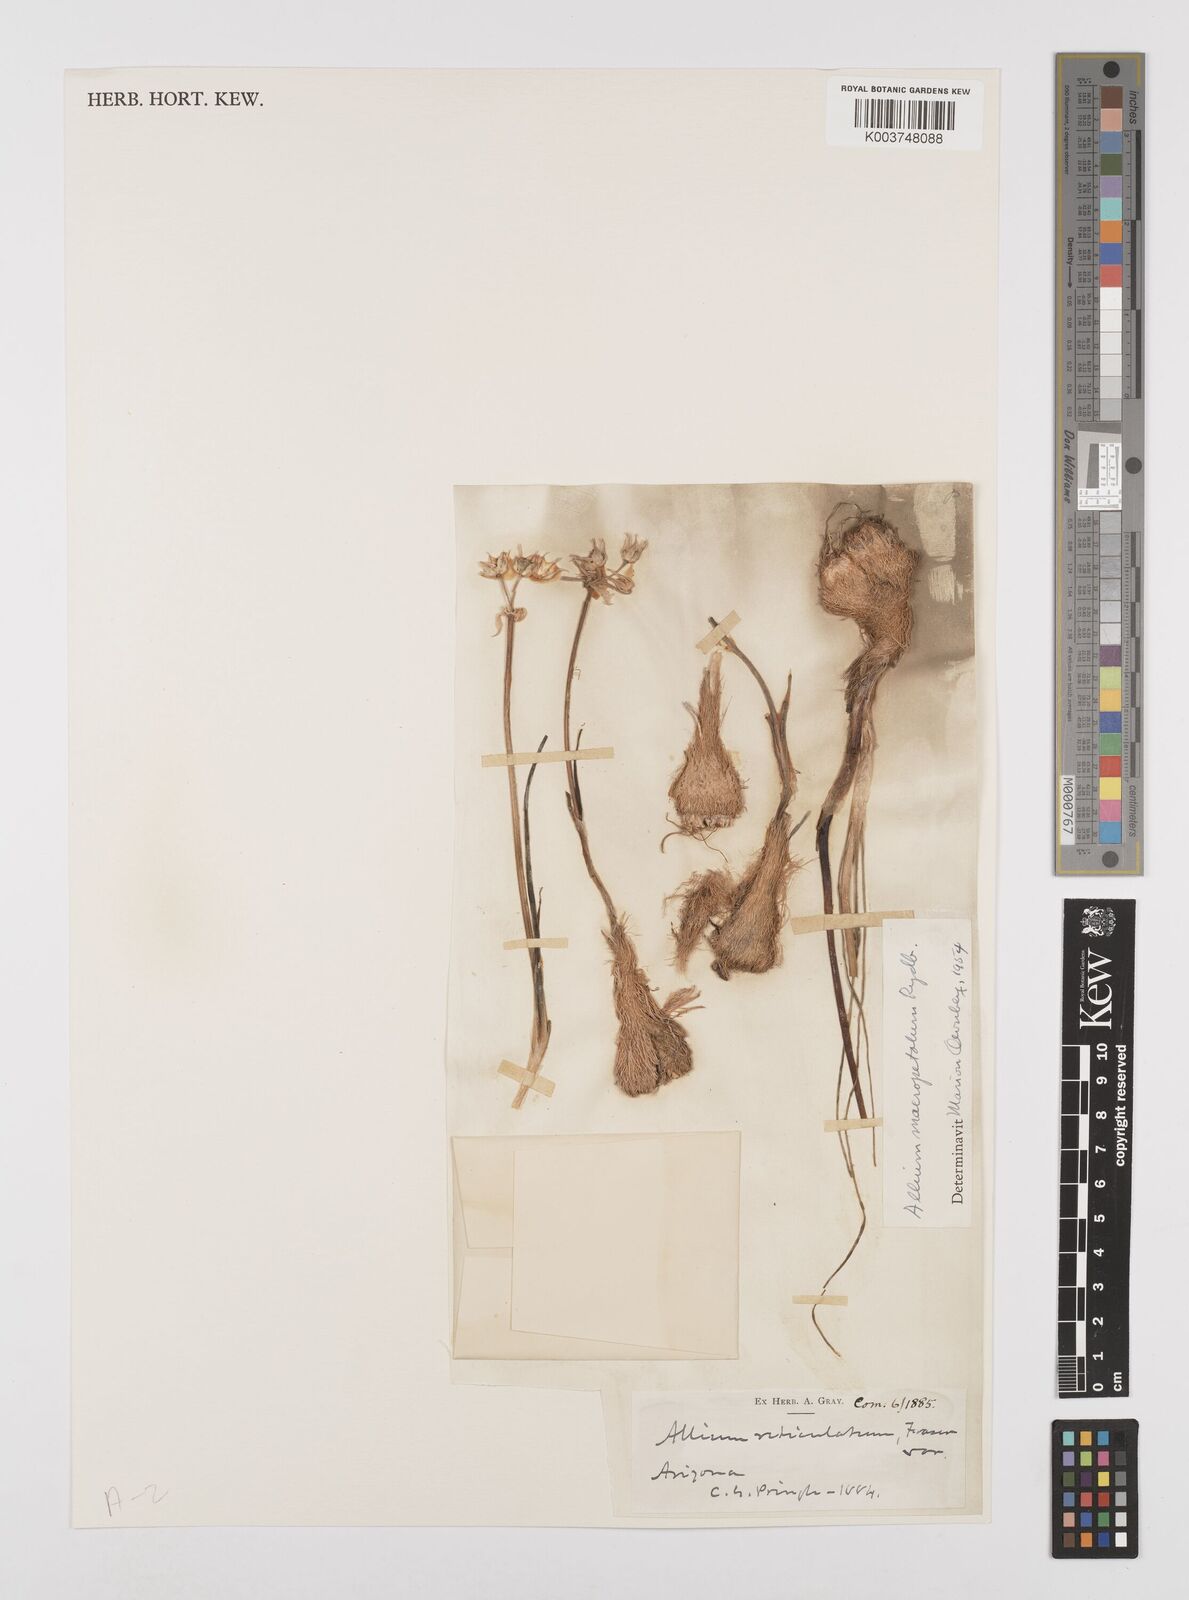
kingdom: Plantae
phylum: Tracheophyta
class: Liliopsida
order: Asparagales
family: Amaryllidaceae
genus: Allium
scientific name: Allium macropetalum
